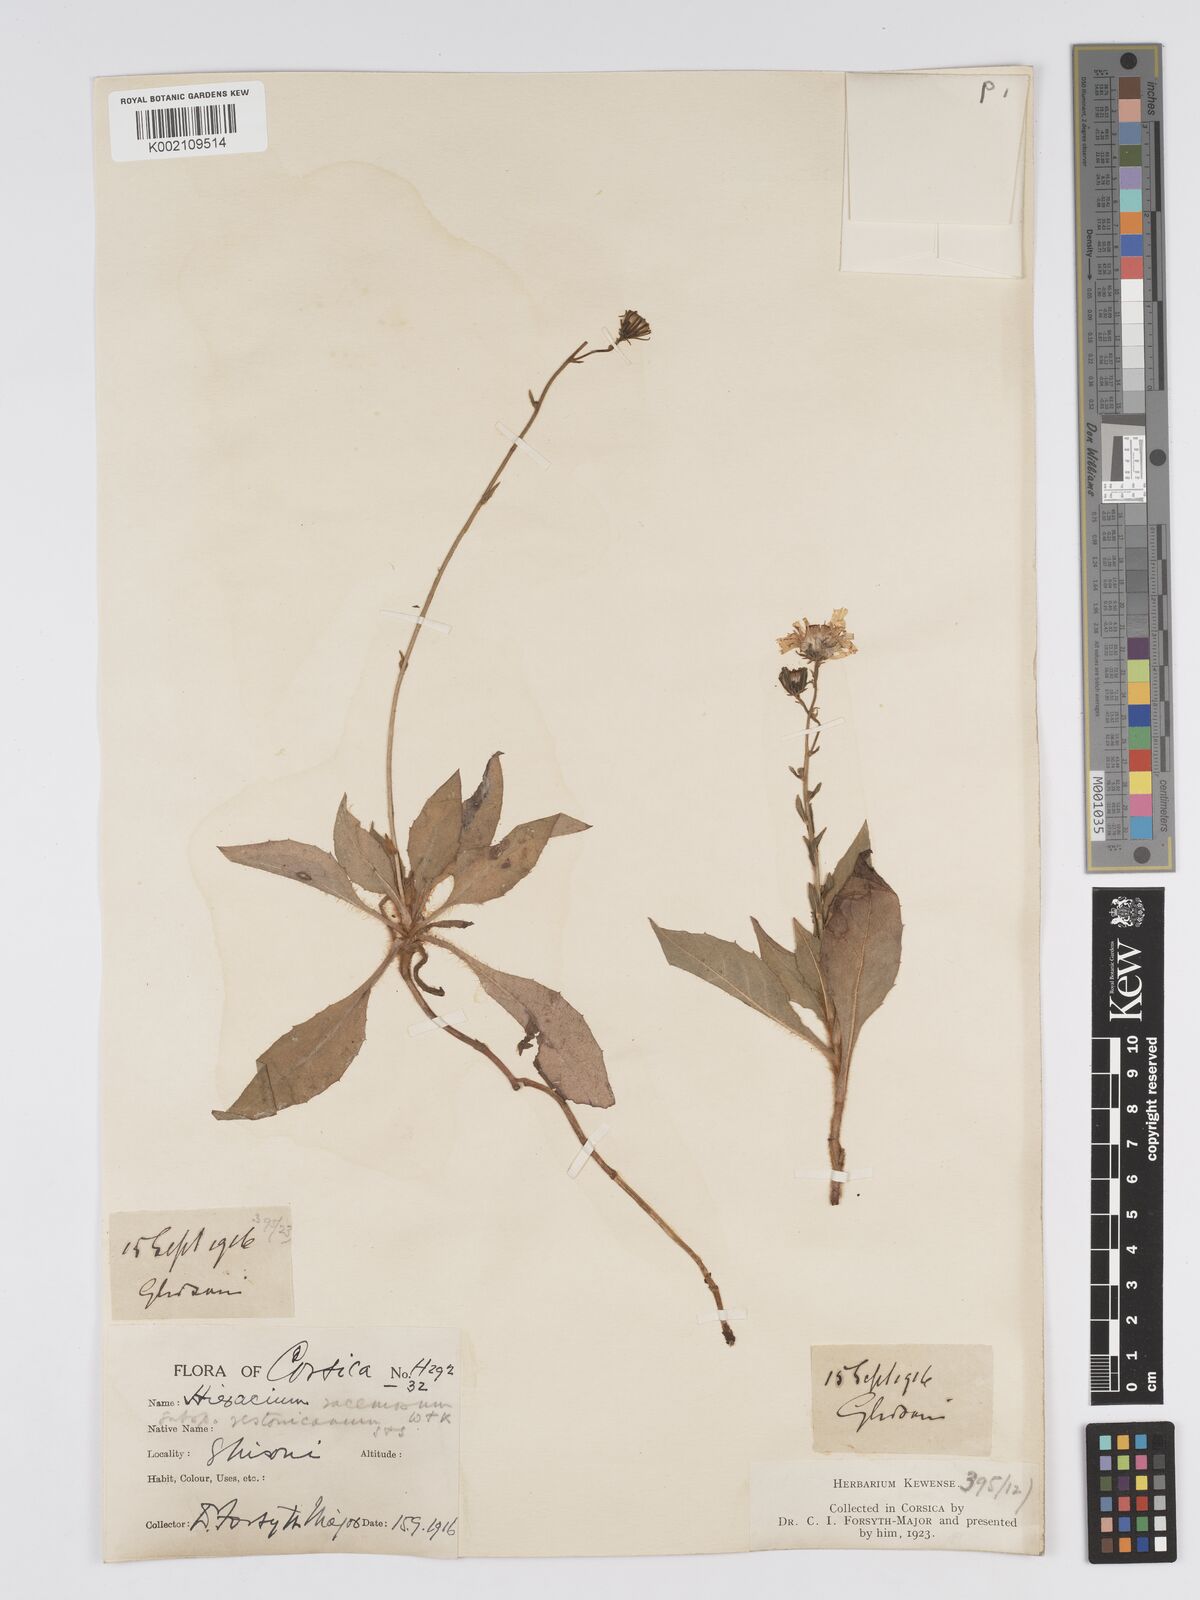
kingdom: Plantae
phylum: Tracheophyta
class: Magnoliopsida
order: Asterales
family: Asteraceae
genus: Hieracium
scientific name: Hieracium
